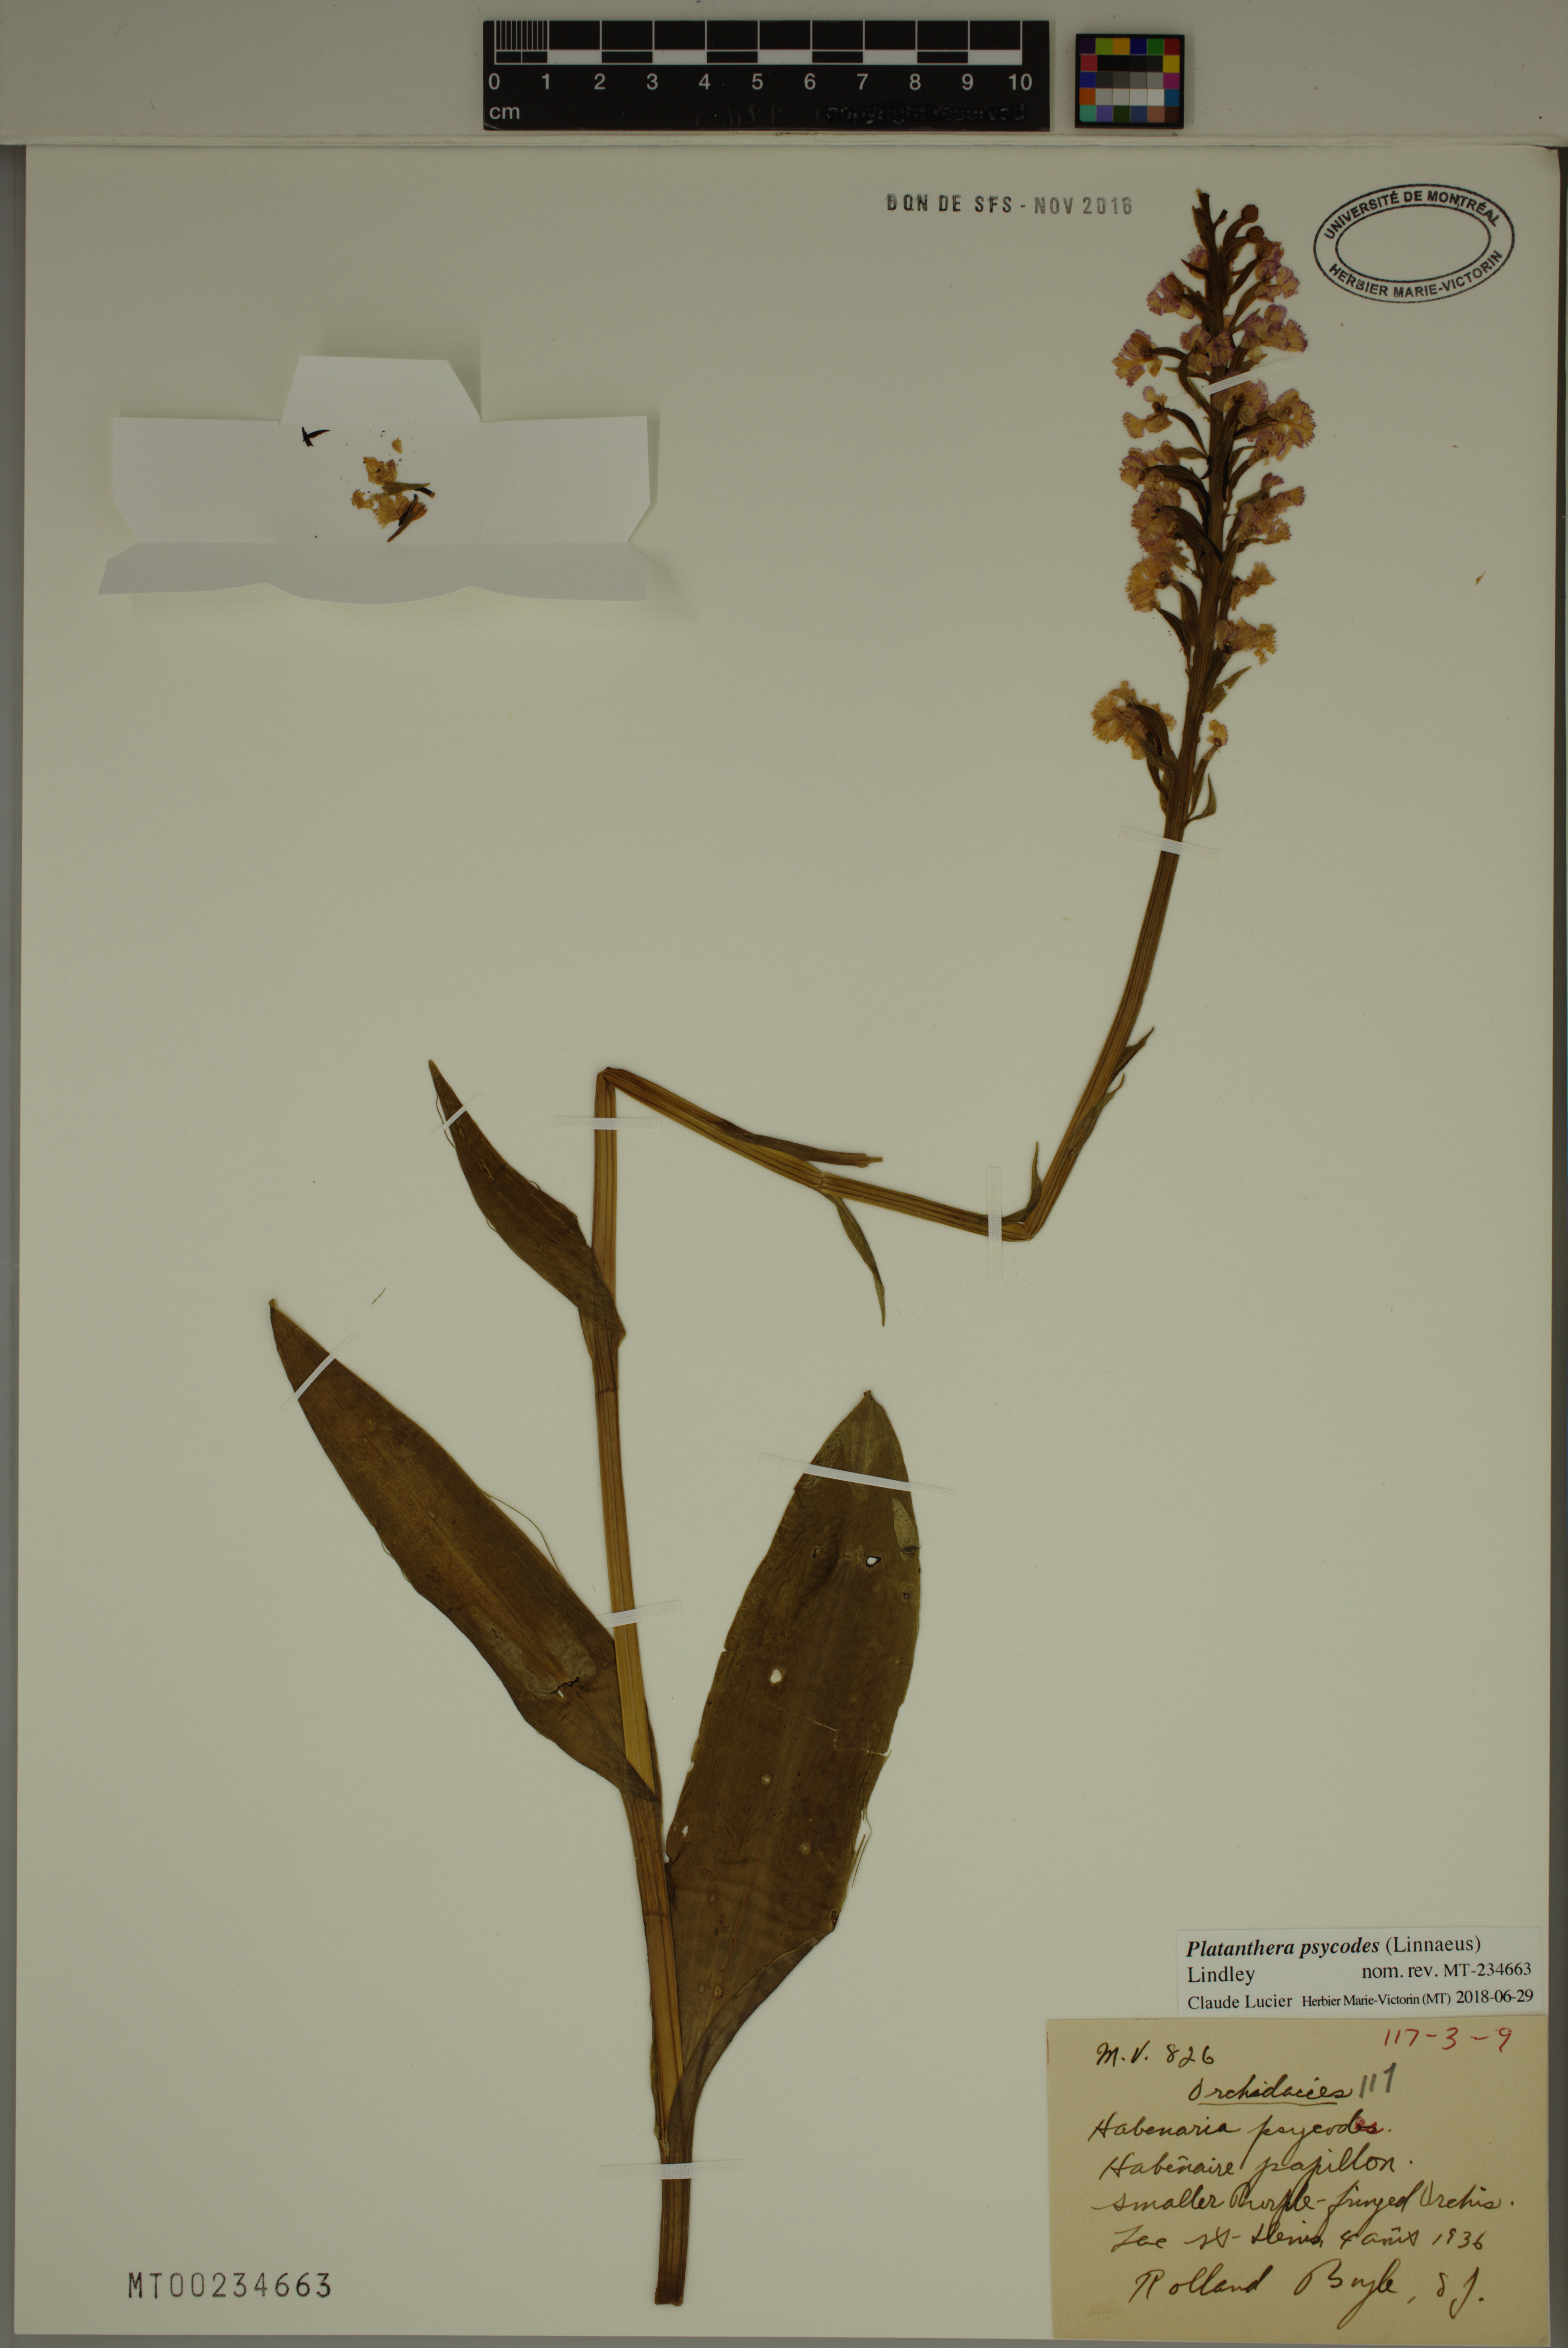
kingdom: Plantae
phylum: Tracheophyta
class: Liliopsida
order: Asparagales
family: Orchidaceae
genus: Platanthera
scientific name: Platanthera psycodes
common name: Lesser purple fringed orchid
